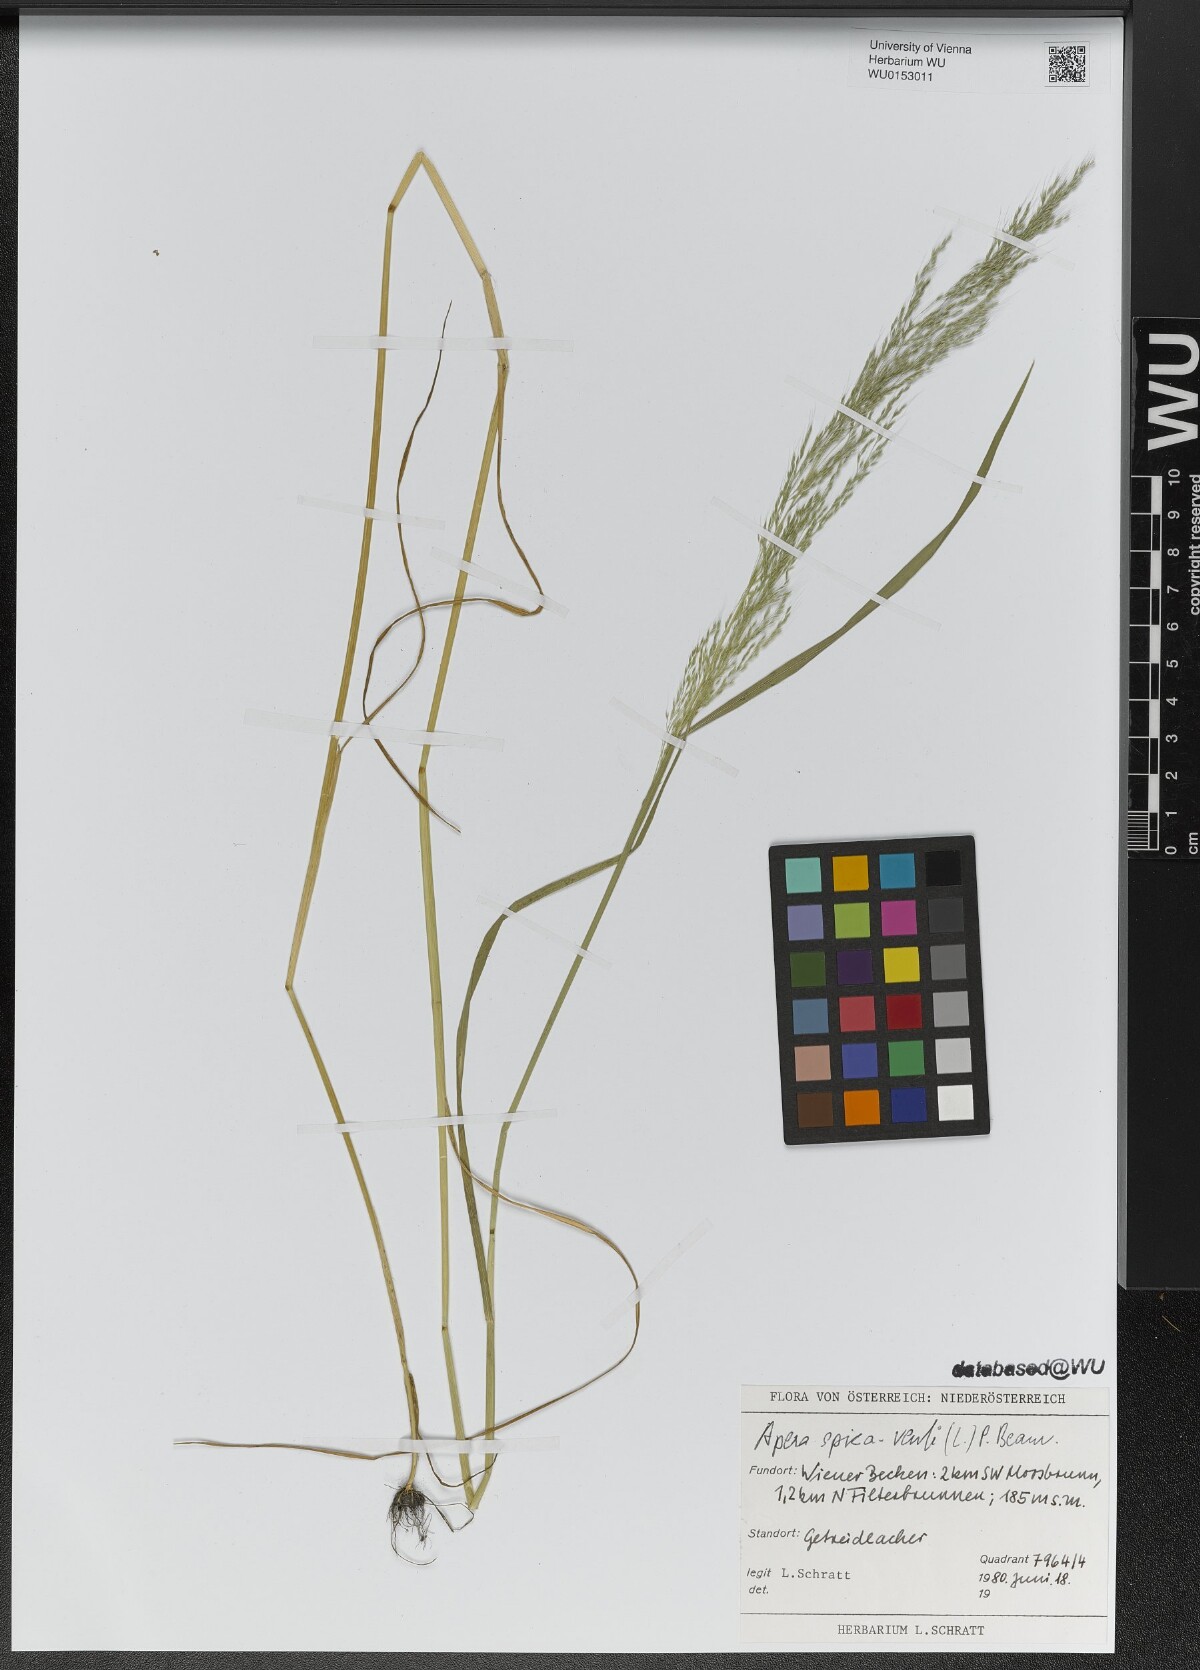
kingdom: Plantae
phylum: Tracheophyta
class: Liliopsida
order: Poales
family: Poaceae
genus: Apera
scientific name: Apera spica-venti
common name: Loose silky-bent
